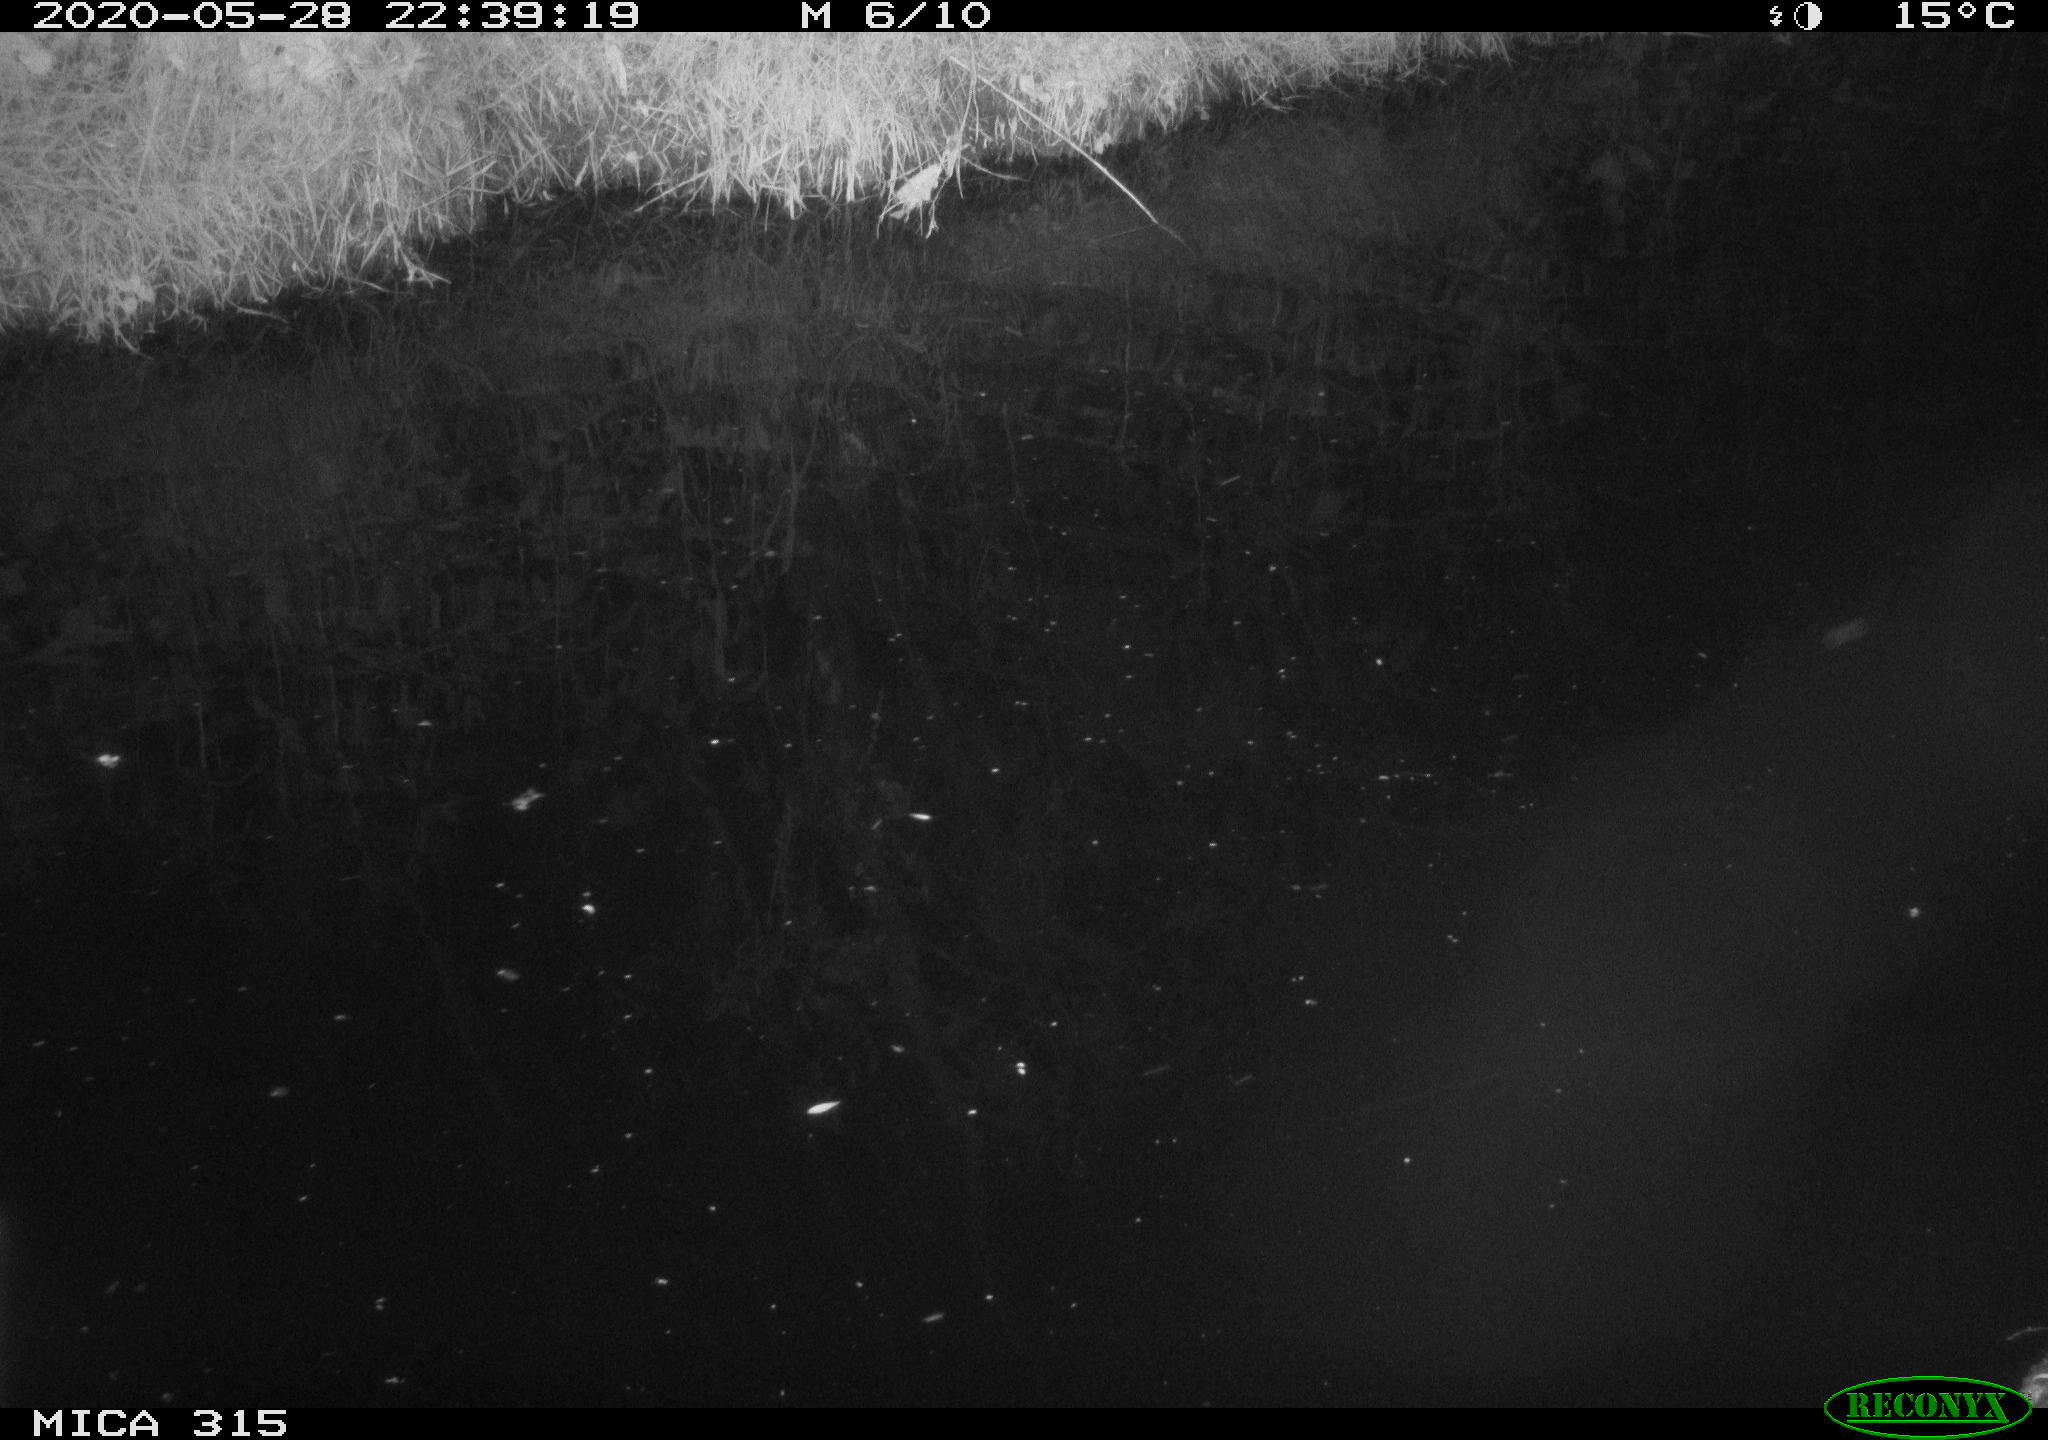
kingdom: Animalia
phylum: Chordata
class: Aves
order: Anseriformes
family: Anatidae
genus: Anas
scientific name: Anas platyrhynchos
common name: Mallard
